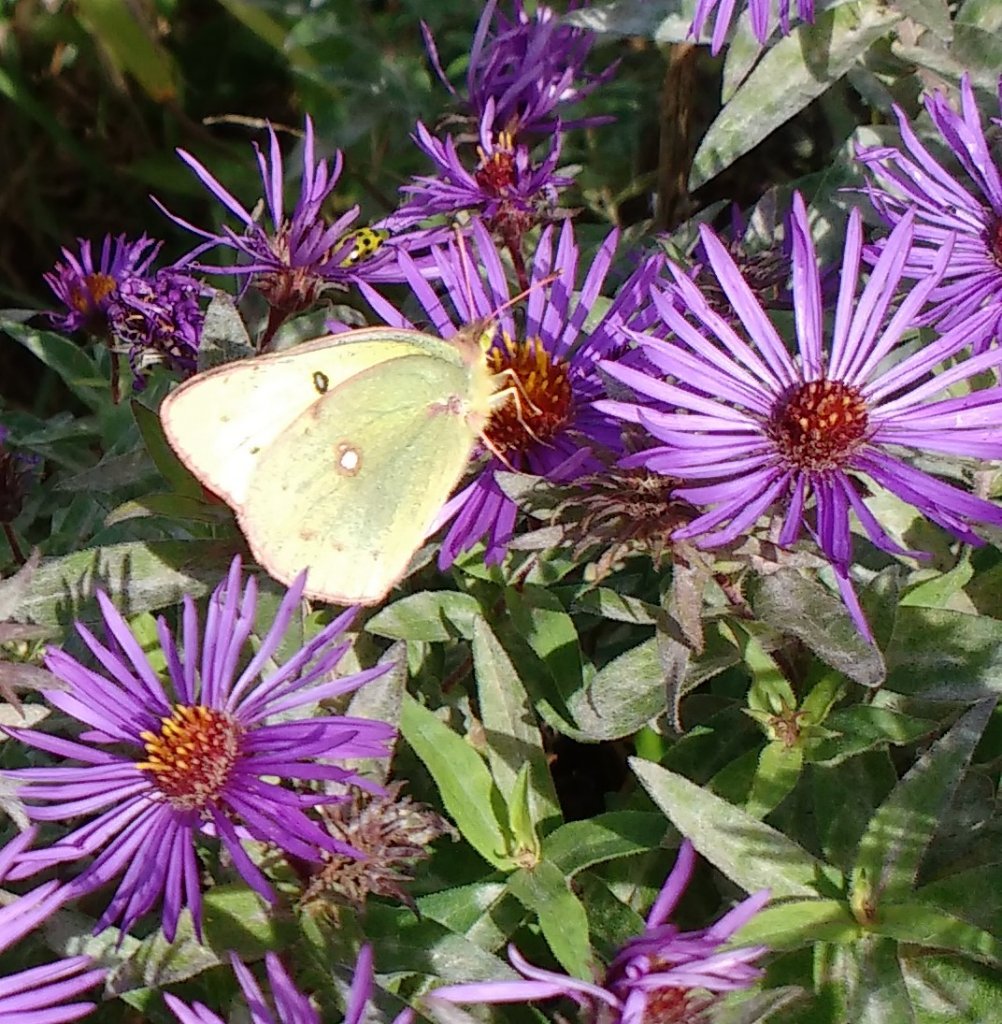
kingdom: Animalia
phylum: Arthropoda
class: Insecta
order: Lepidoptera
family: Pieridae
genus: Colias
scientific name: Colias philodice
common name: Clouded Sulphur
